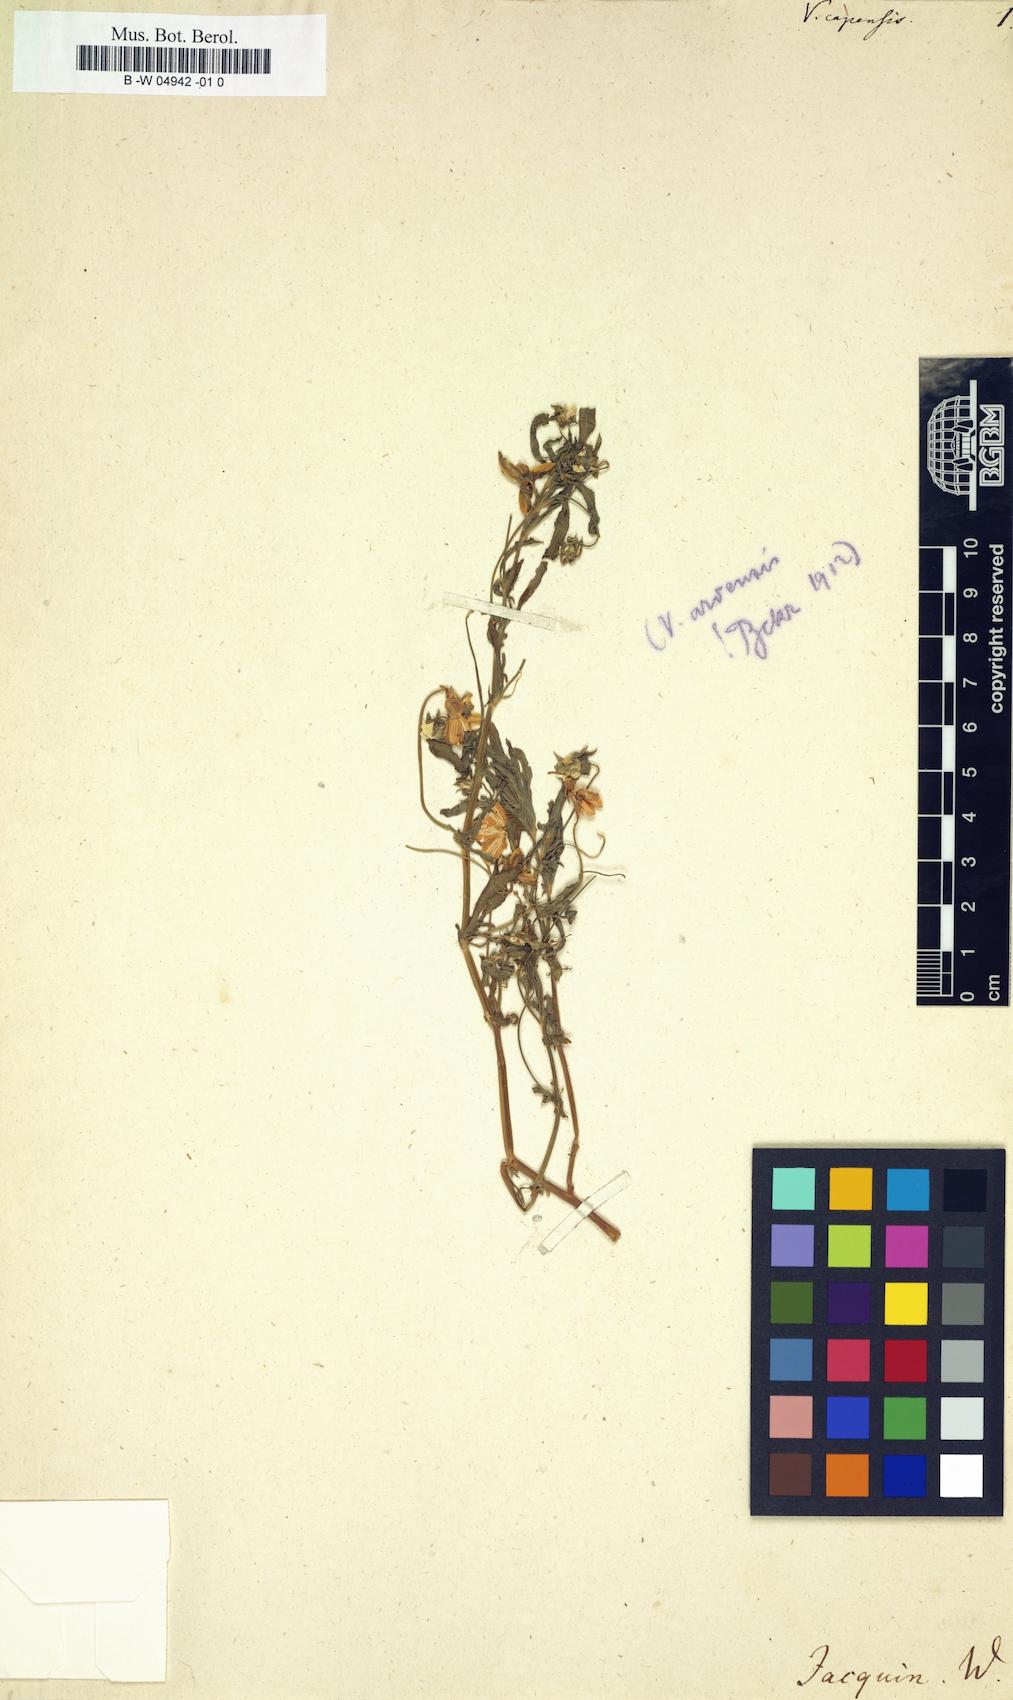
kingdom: Plantae
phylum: Tracheophyta
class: Magnoliopsida
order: Malpighiales
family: Violaceae
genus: Hybanthus
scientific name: Hybanthus capensis
